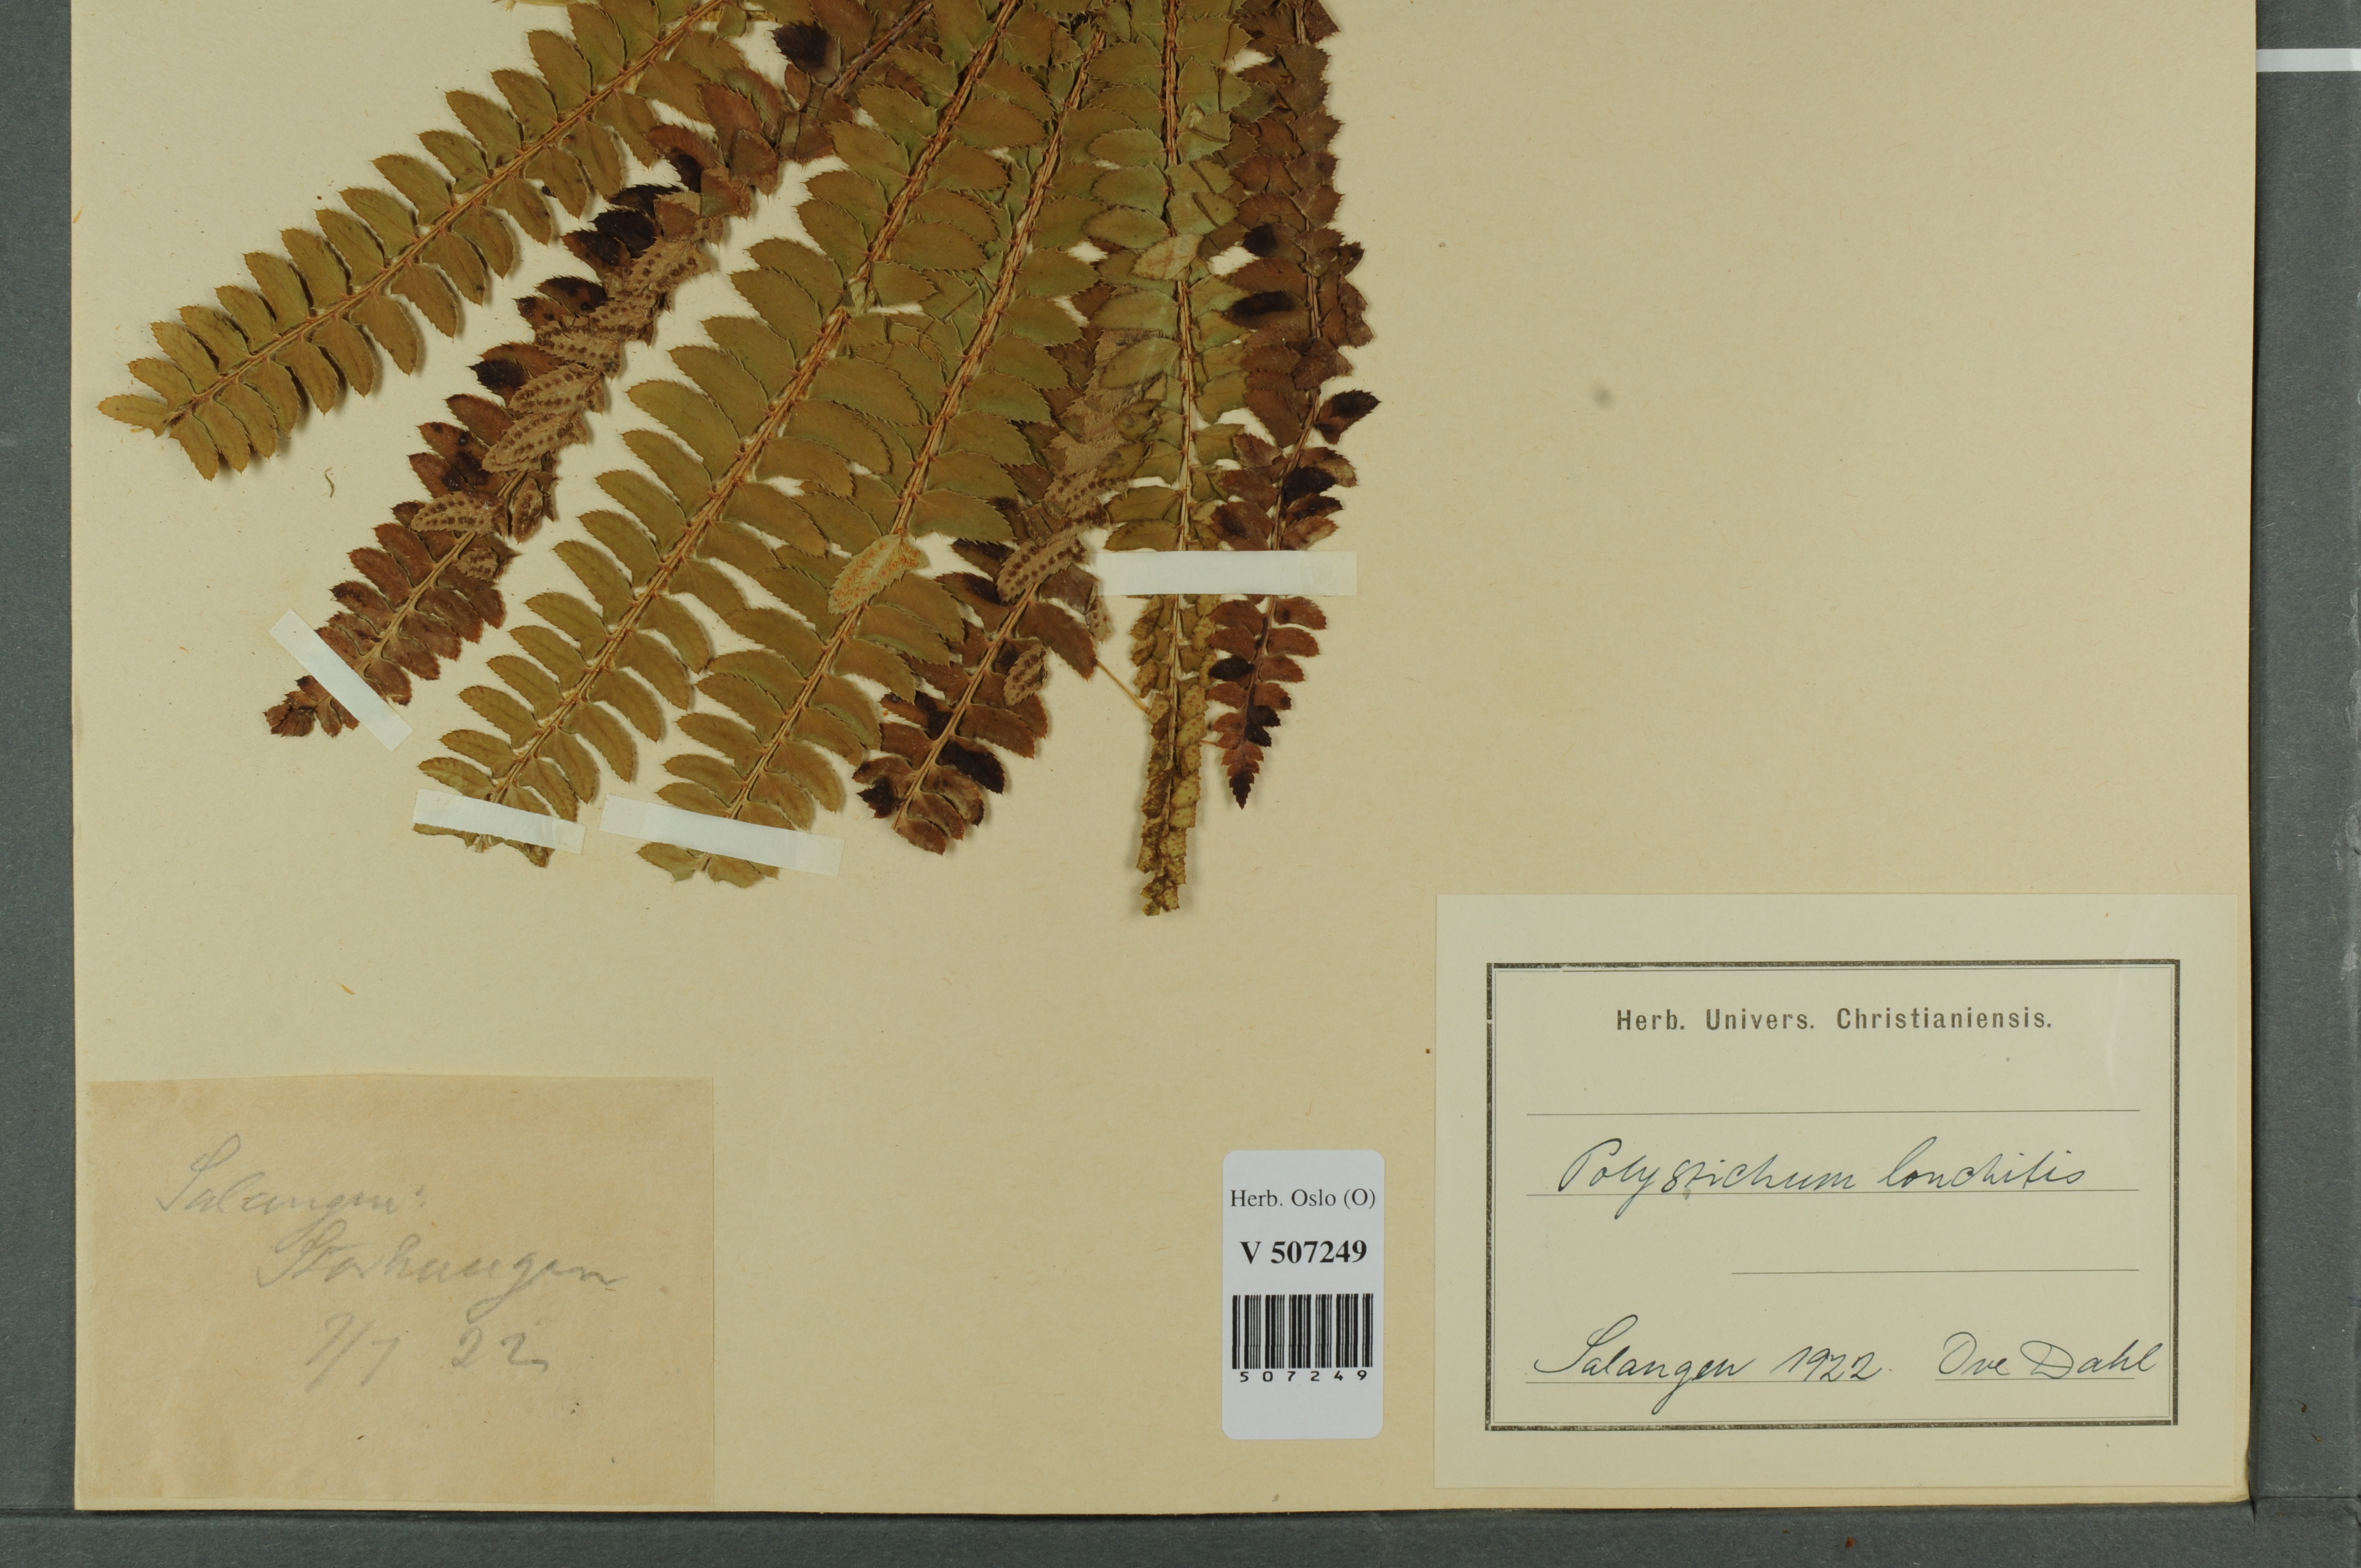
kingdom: Plantae
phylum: Tracheophyta
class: Polypodiopsida
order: Polypodiales
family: Dryopteridaceae
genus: Polystichum
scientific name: Polystichum lonchitis
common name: Holly fern
